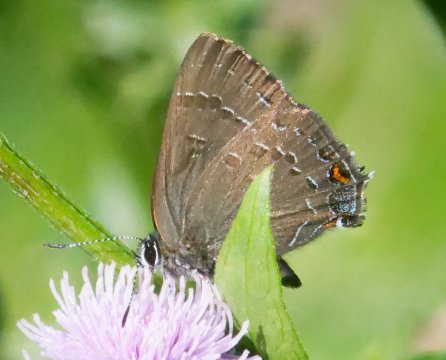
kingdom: Animalia
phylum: Arthropoda
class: Insecta
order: Lepidoptera
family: Lycaenidae
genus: Satyrium
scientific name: Satyrium calanus
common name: Banded Hairstreak
